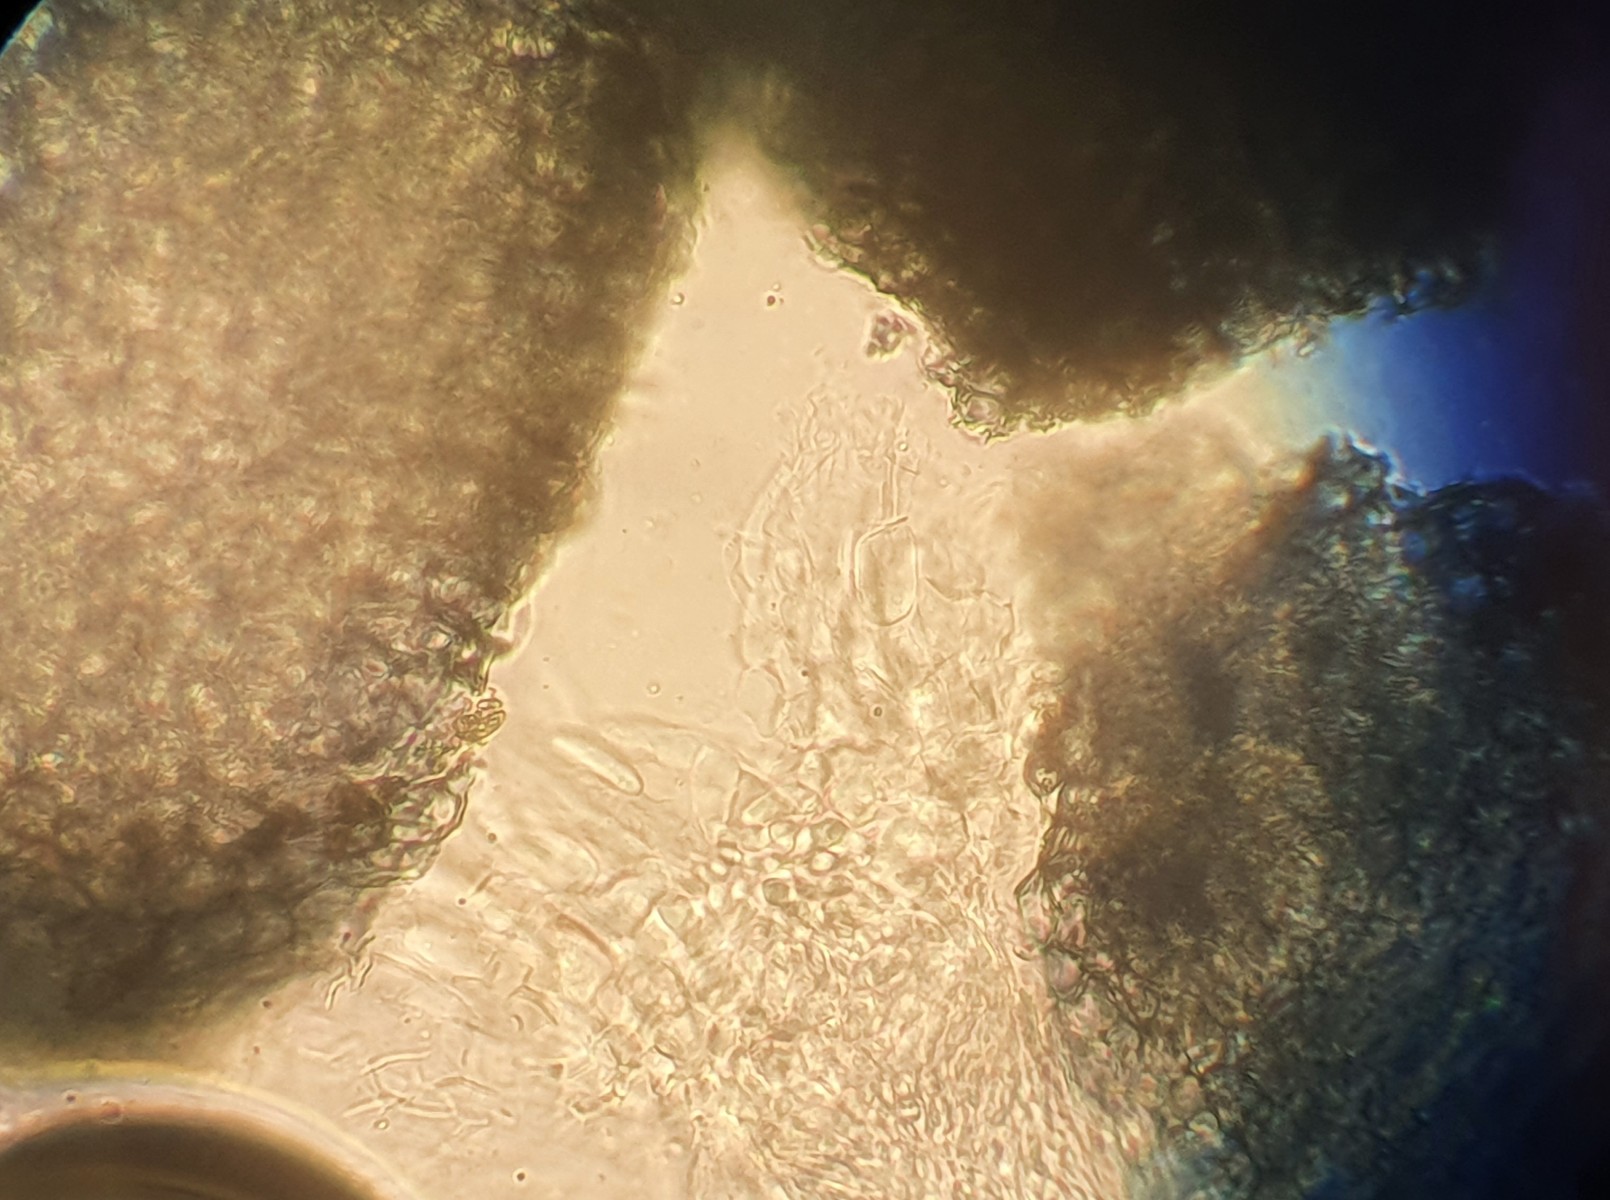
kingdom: Fungi
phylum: Ascomycota
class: Sordariomycetes
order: Hypocreales
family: Nectriaceae
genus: Fusarium
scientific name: Fusarium
